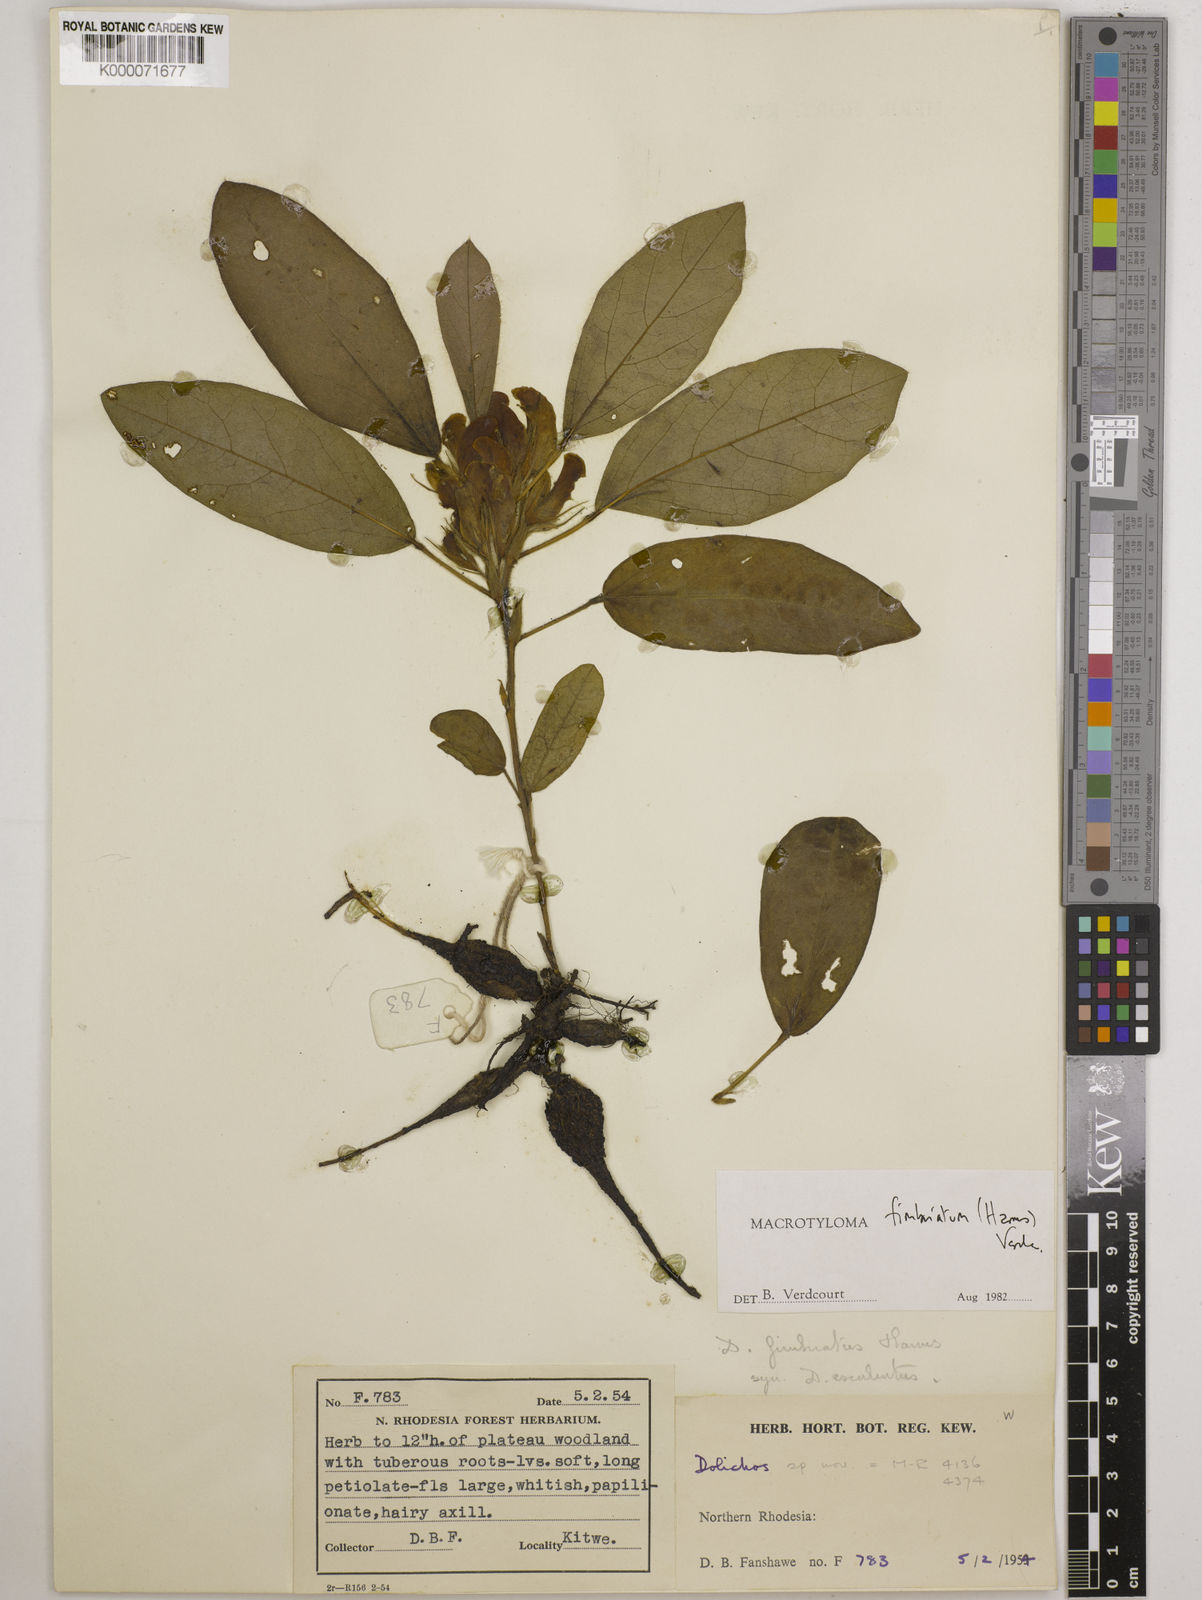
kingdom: Plantae
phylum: Tracheophyta
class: Magnoliopsida
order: Fabales
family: Fabaceae
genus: Macrotyloma
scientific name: Macrotyloma fimbriatum
